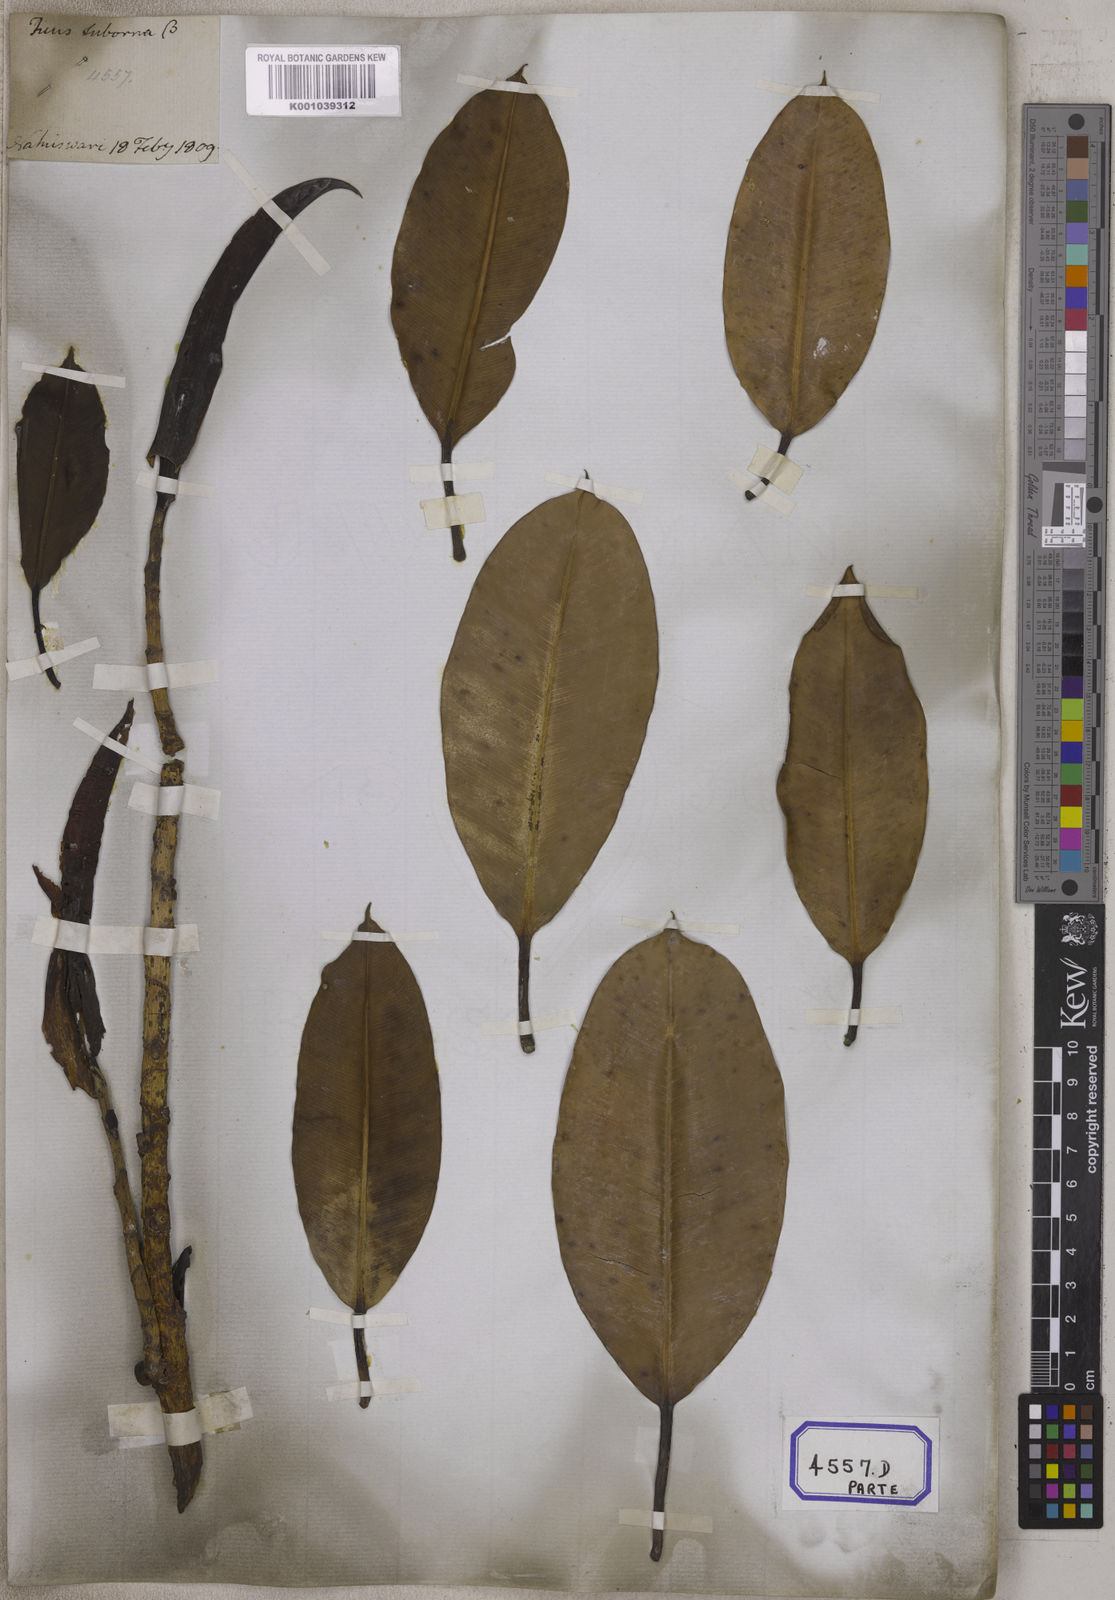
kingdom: Plantae
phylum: Tracheophyta
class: Magnoliopsida
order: Rosales
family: Moraceae
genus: Ficus
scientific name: Ficus
